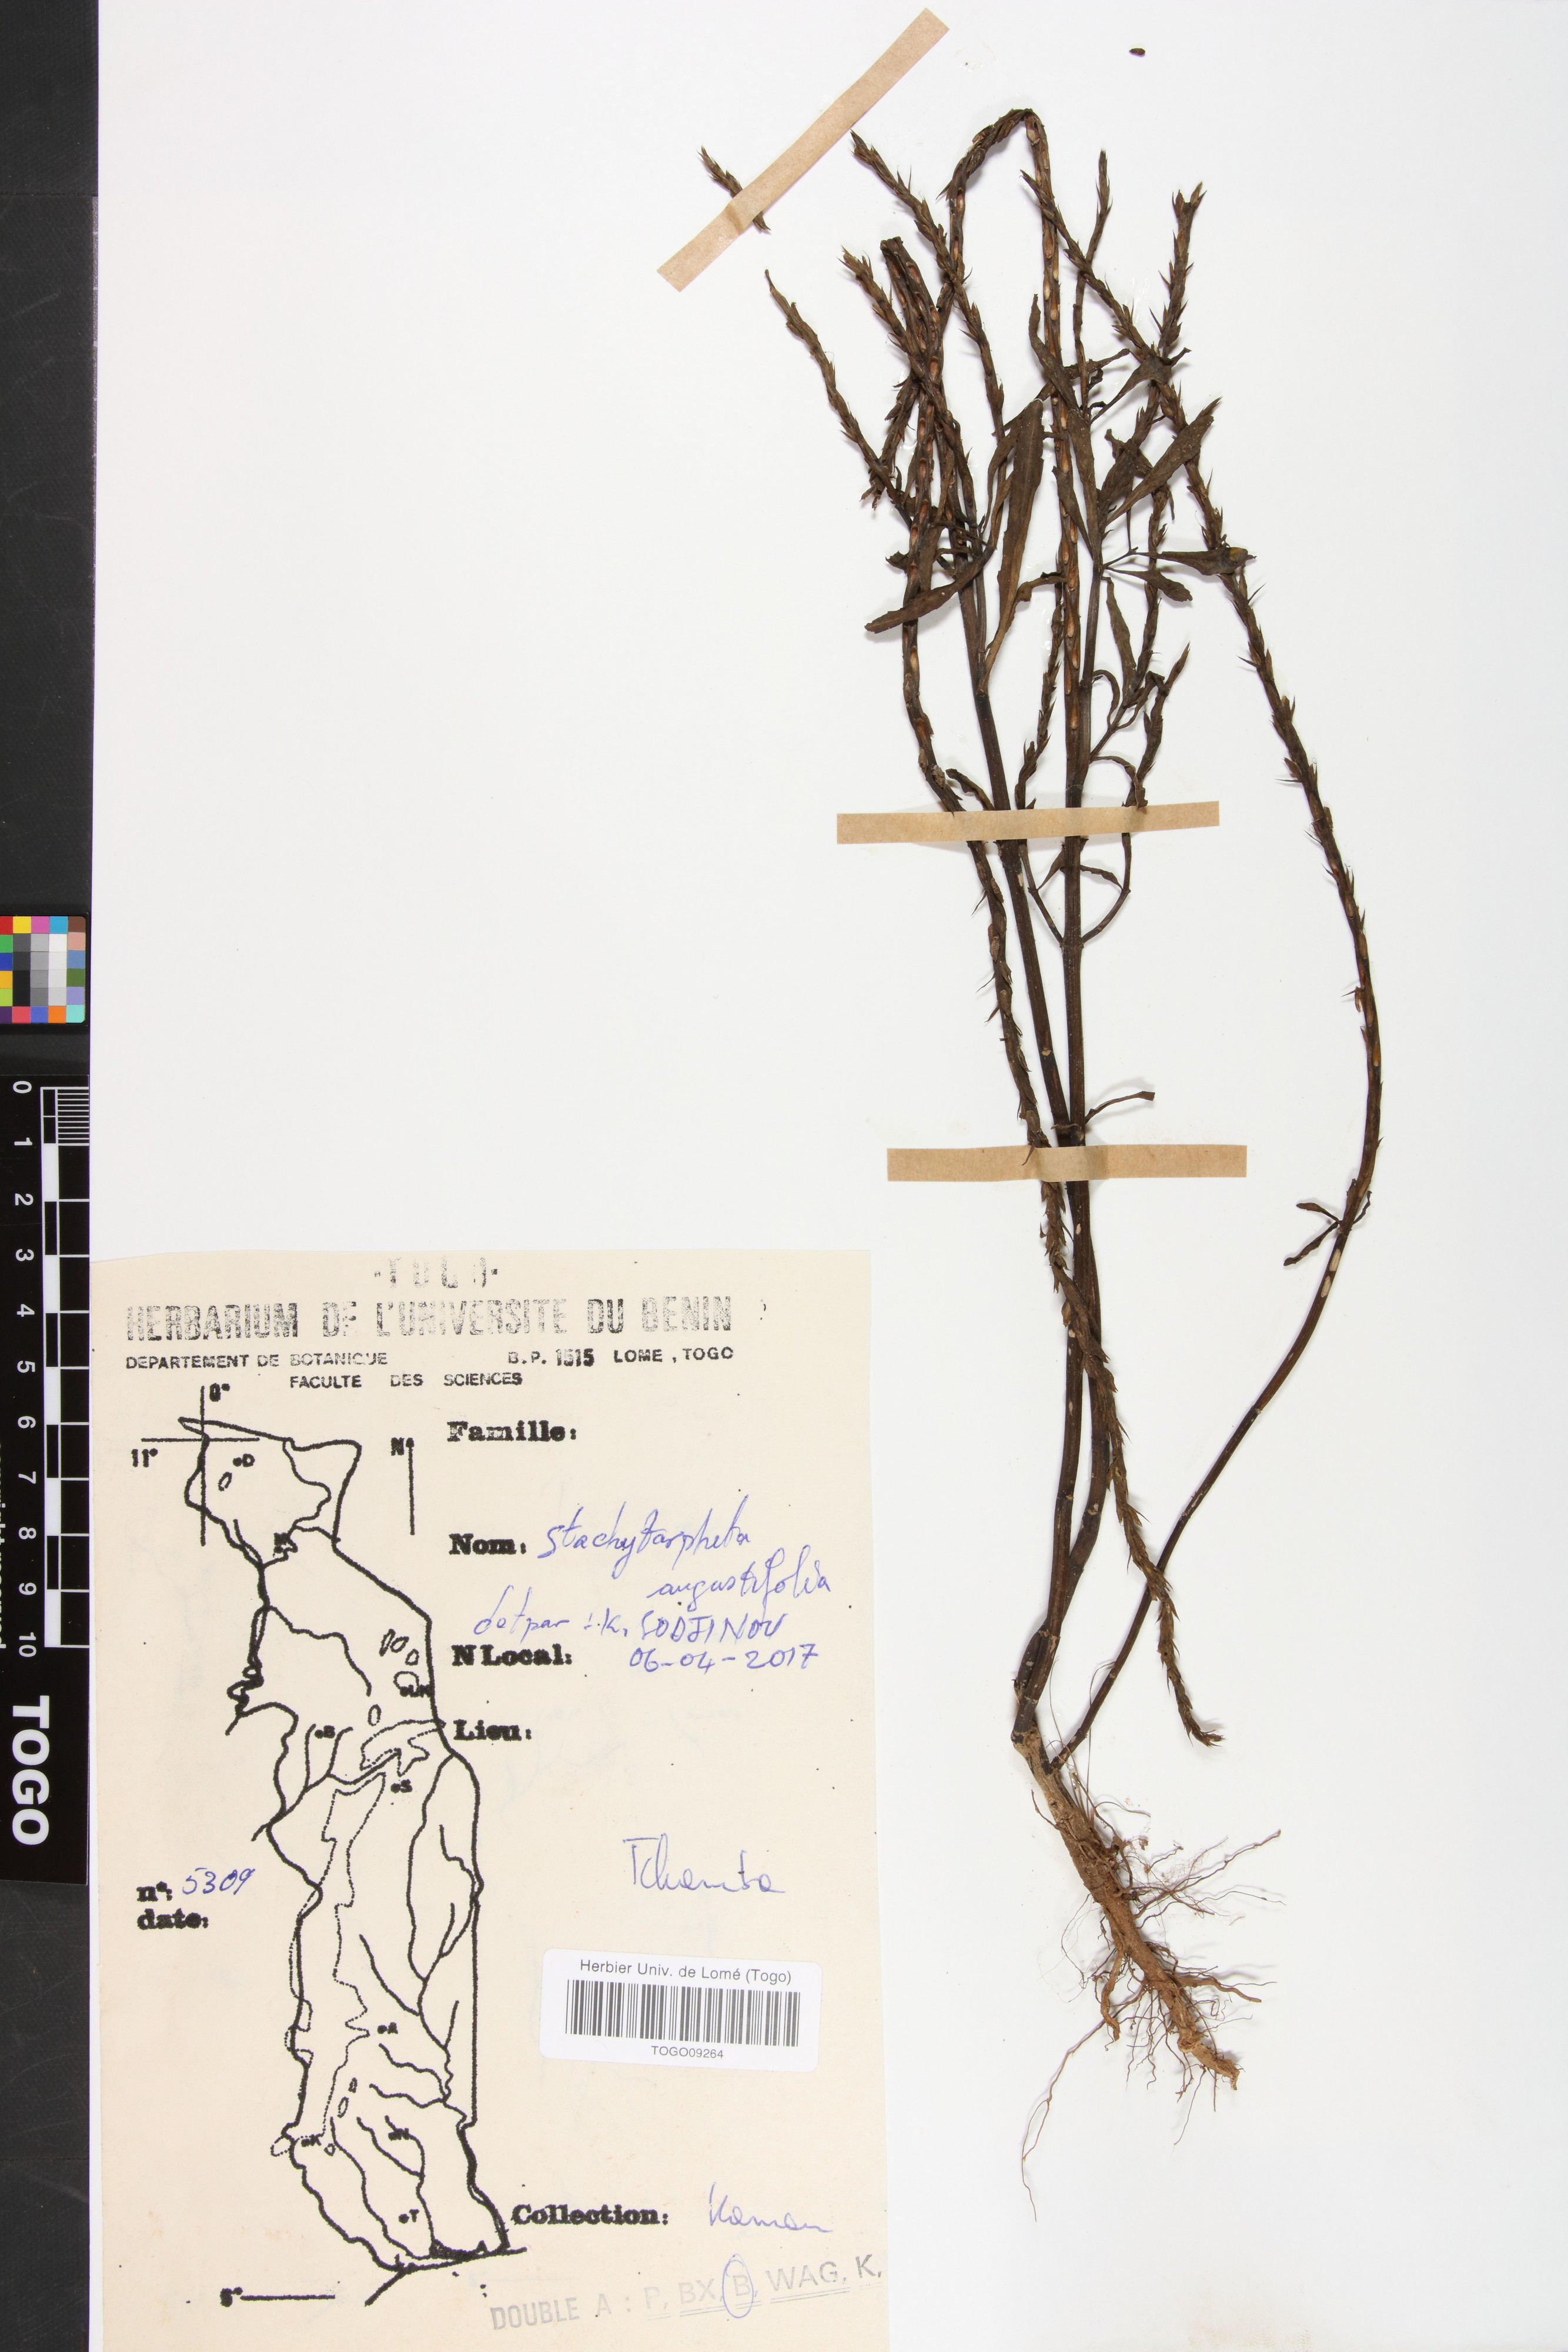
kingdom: Plantae
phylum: Tracheophyta
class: Magnoliopsida
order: Lamiales
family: Verbenaceae
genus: Stachytarpheta
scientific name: Stachytarpheta indica
